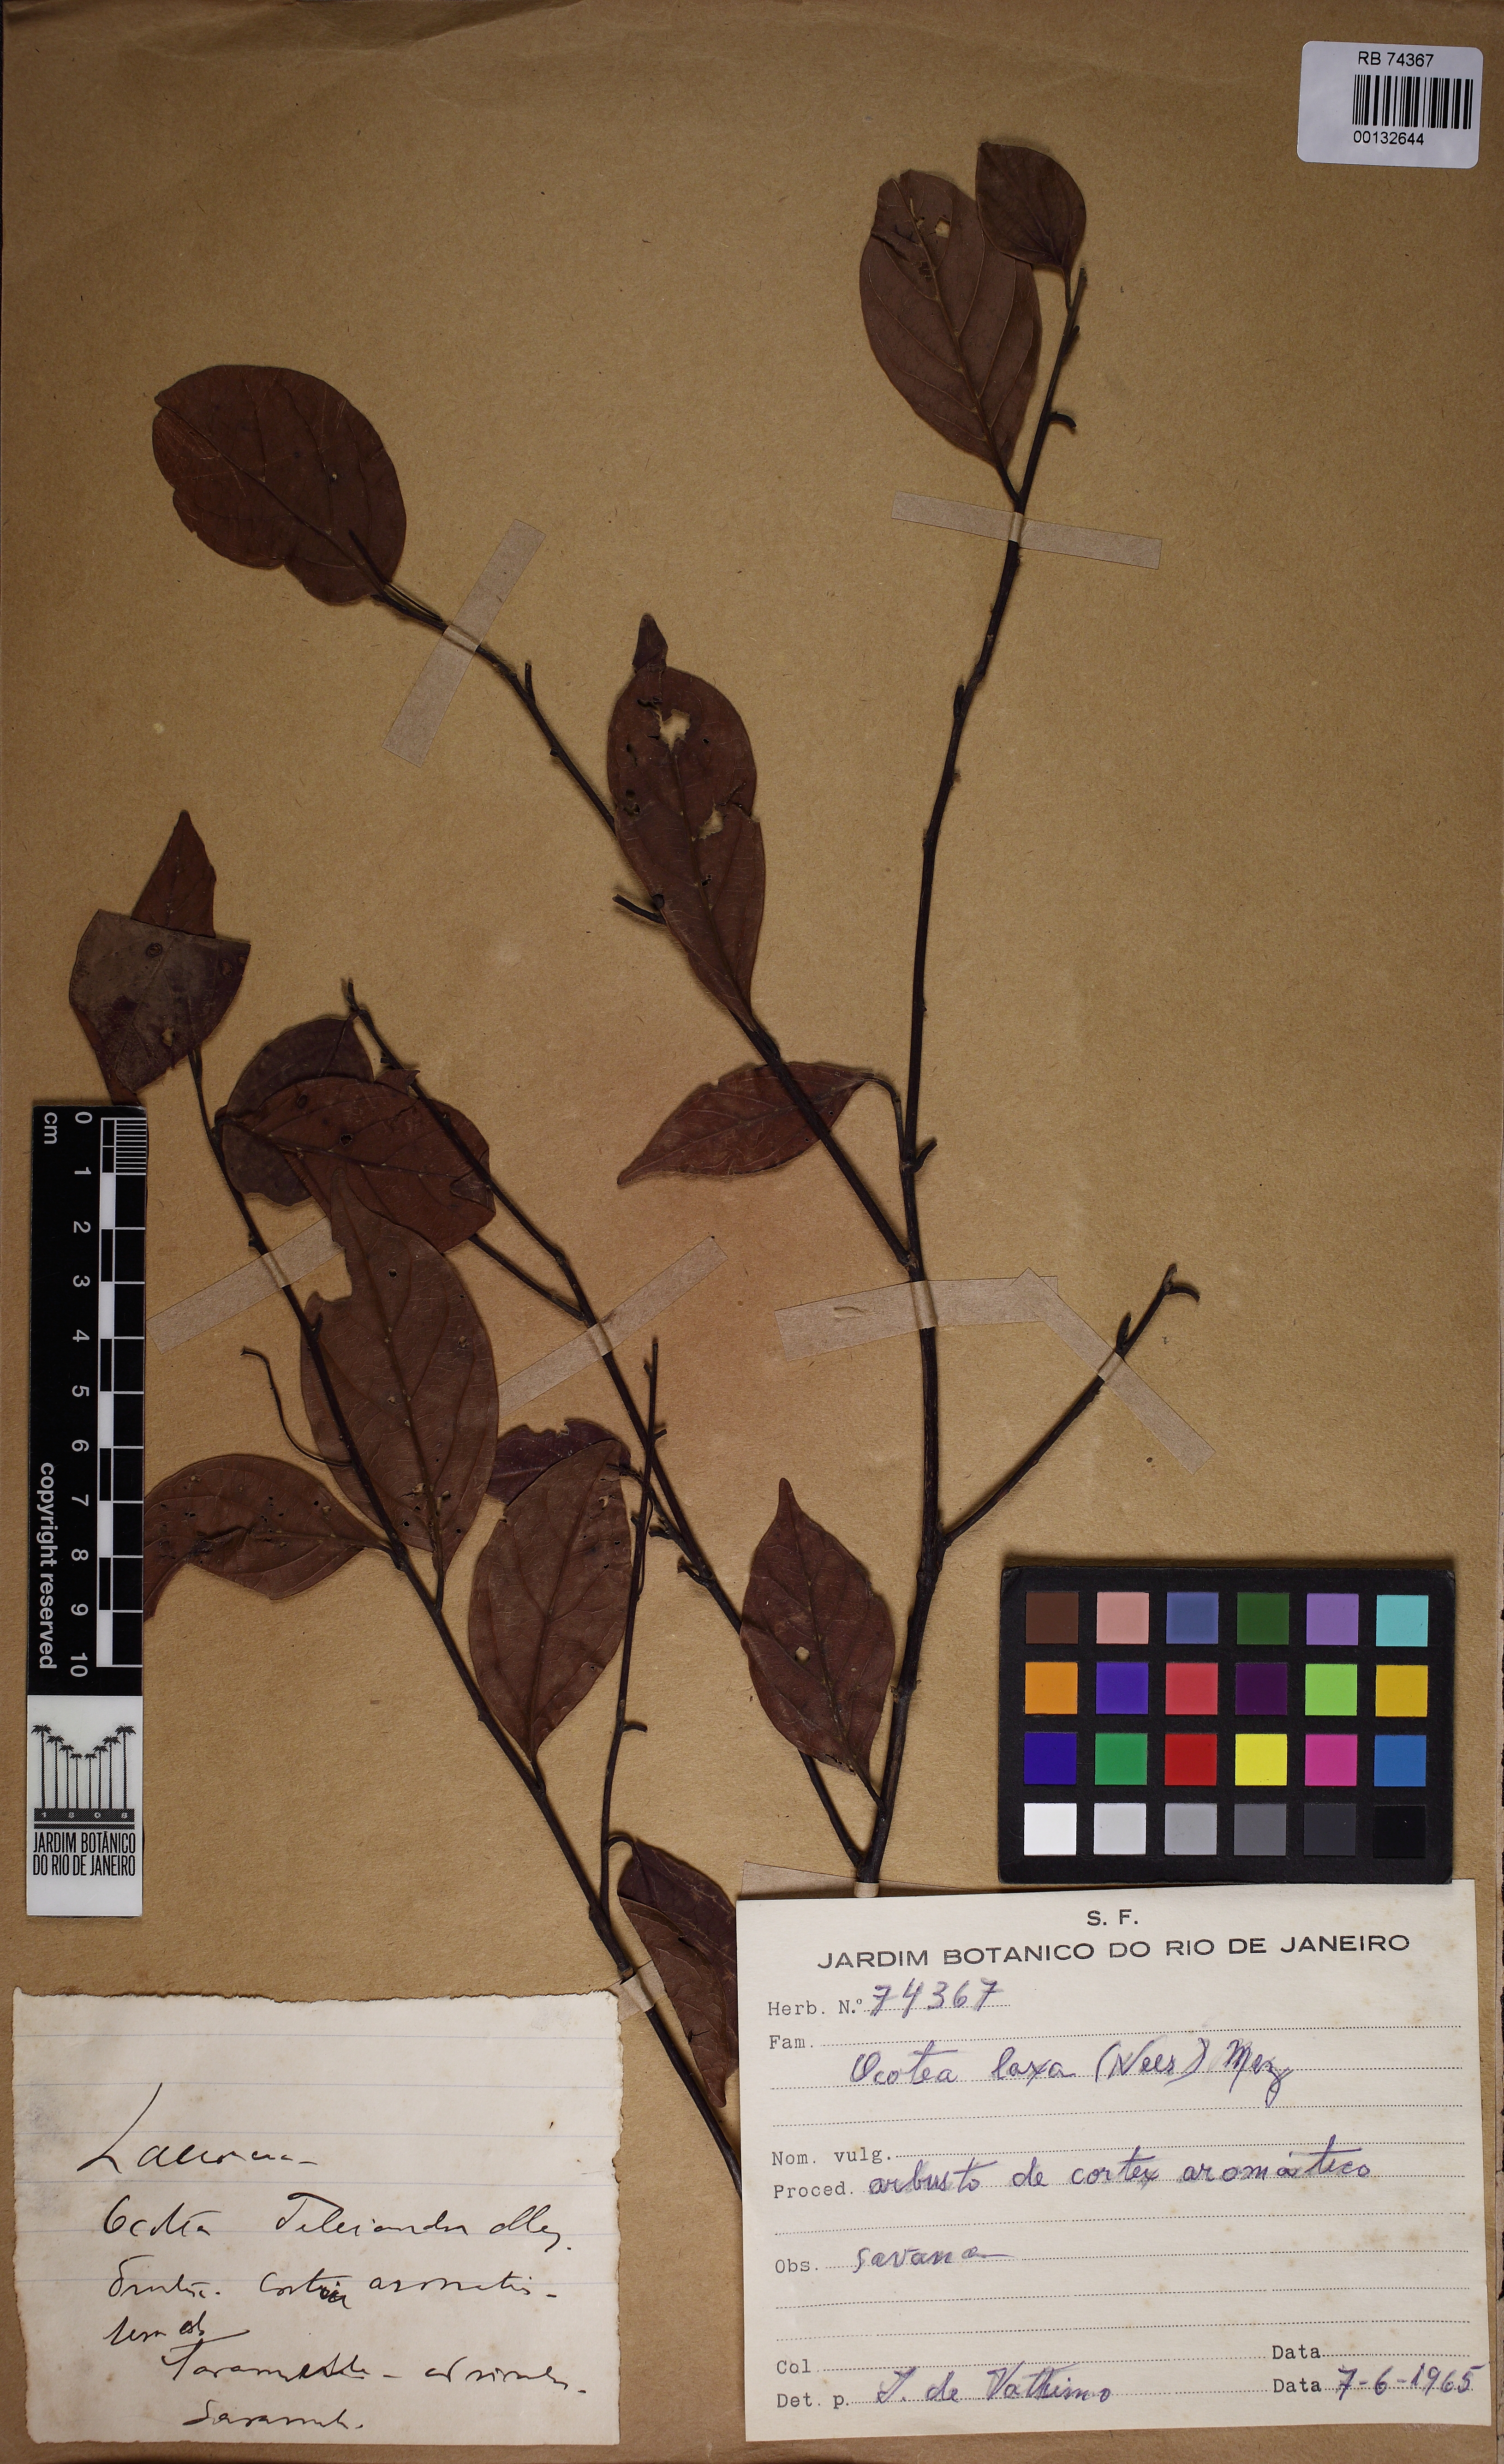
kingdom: Plantae
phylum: Tracheophyta
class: Magnoliopsida
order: Laurales
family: Lauraceae
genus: Ocotea
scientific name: Ocotea laxa
